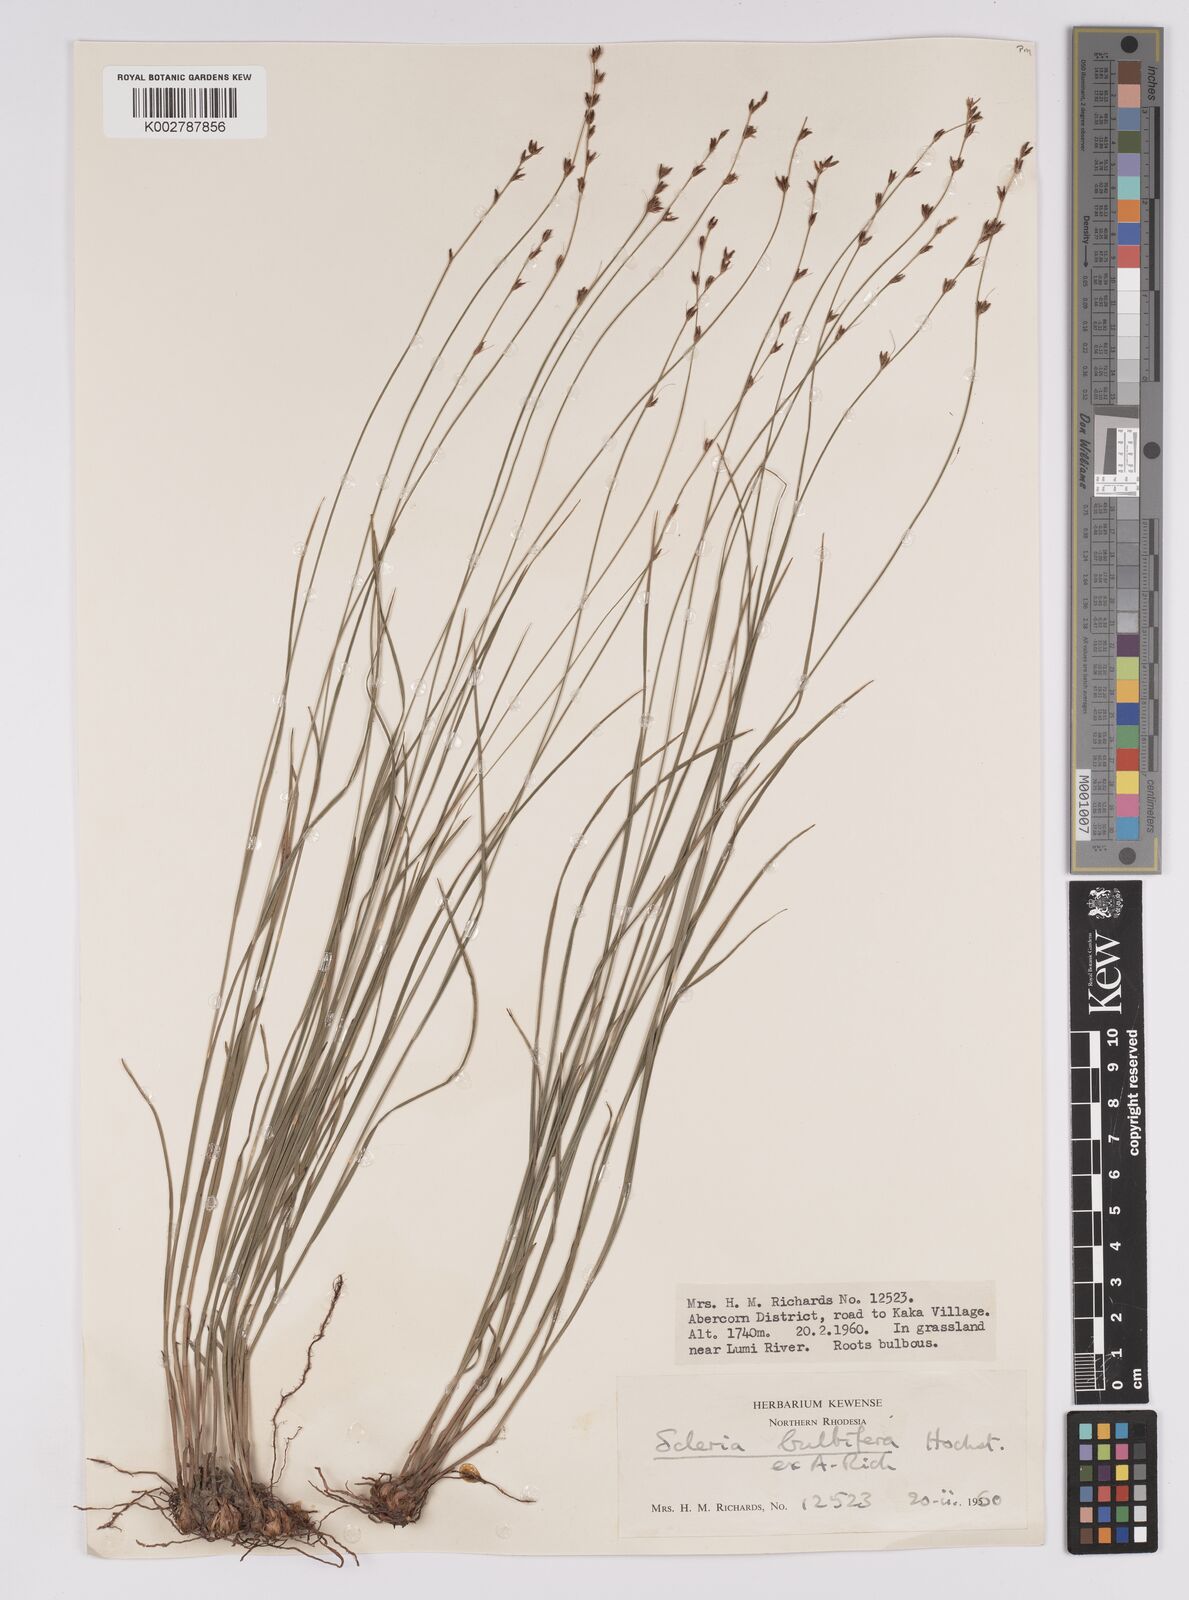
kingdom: Plantae
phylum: Tracheophyta
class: Liliopsida
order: Poales
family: Cyperaceae
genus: Scleria
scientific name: Scleria bulbifera
